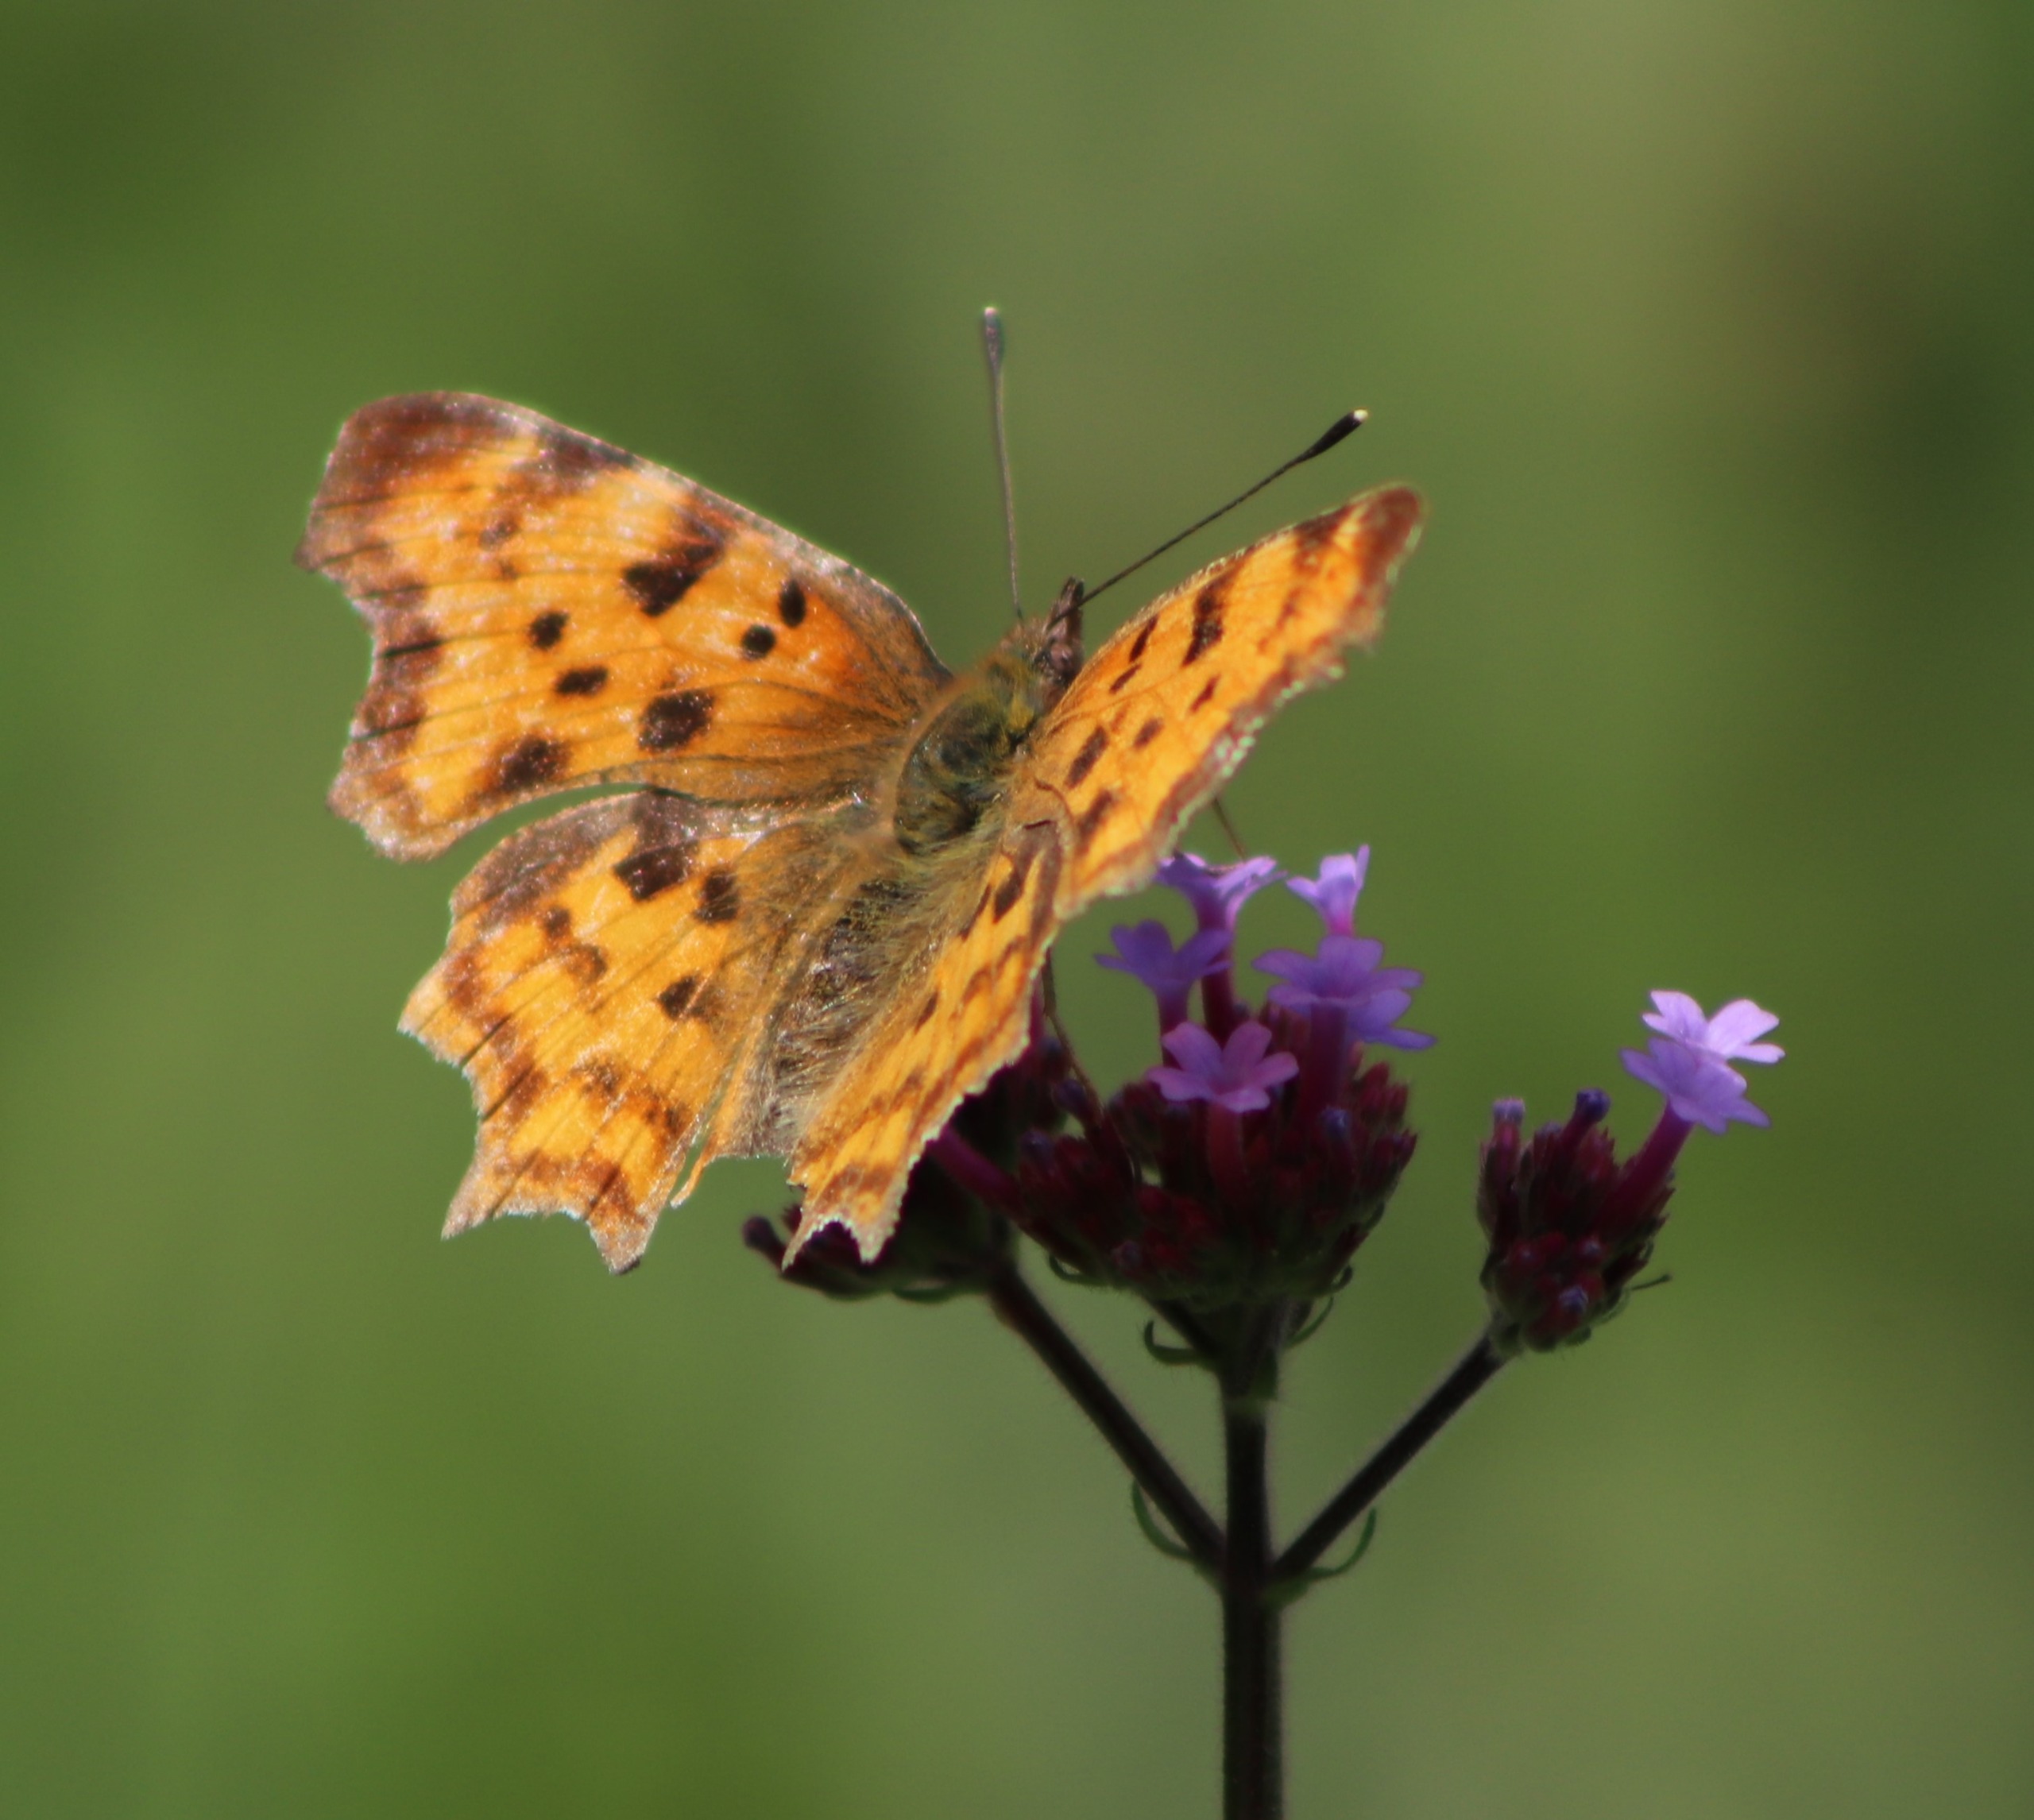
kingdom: Animalia
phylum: Arthropoda
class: Insecta
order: Lepidoptera
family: Nymphalidae
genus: Polygonia
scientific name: Polygonia c-album
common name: Det hvide C
